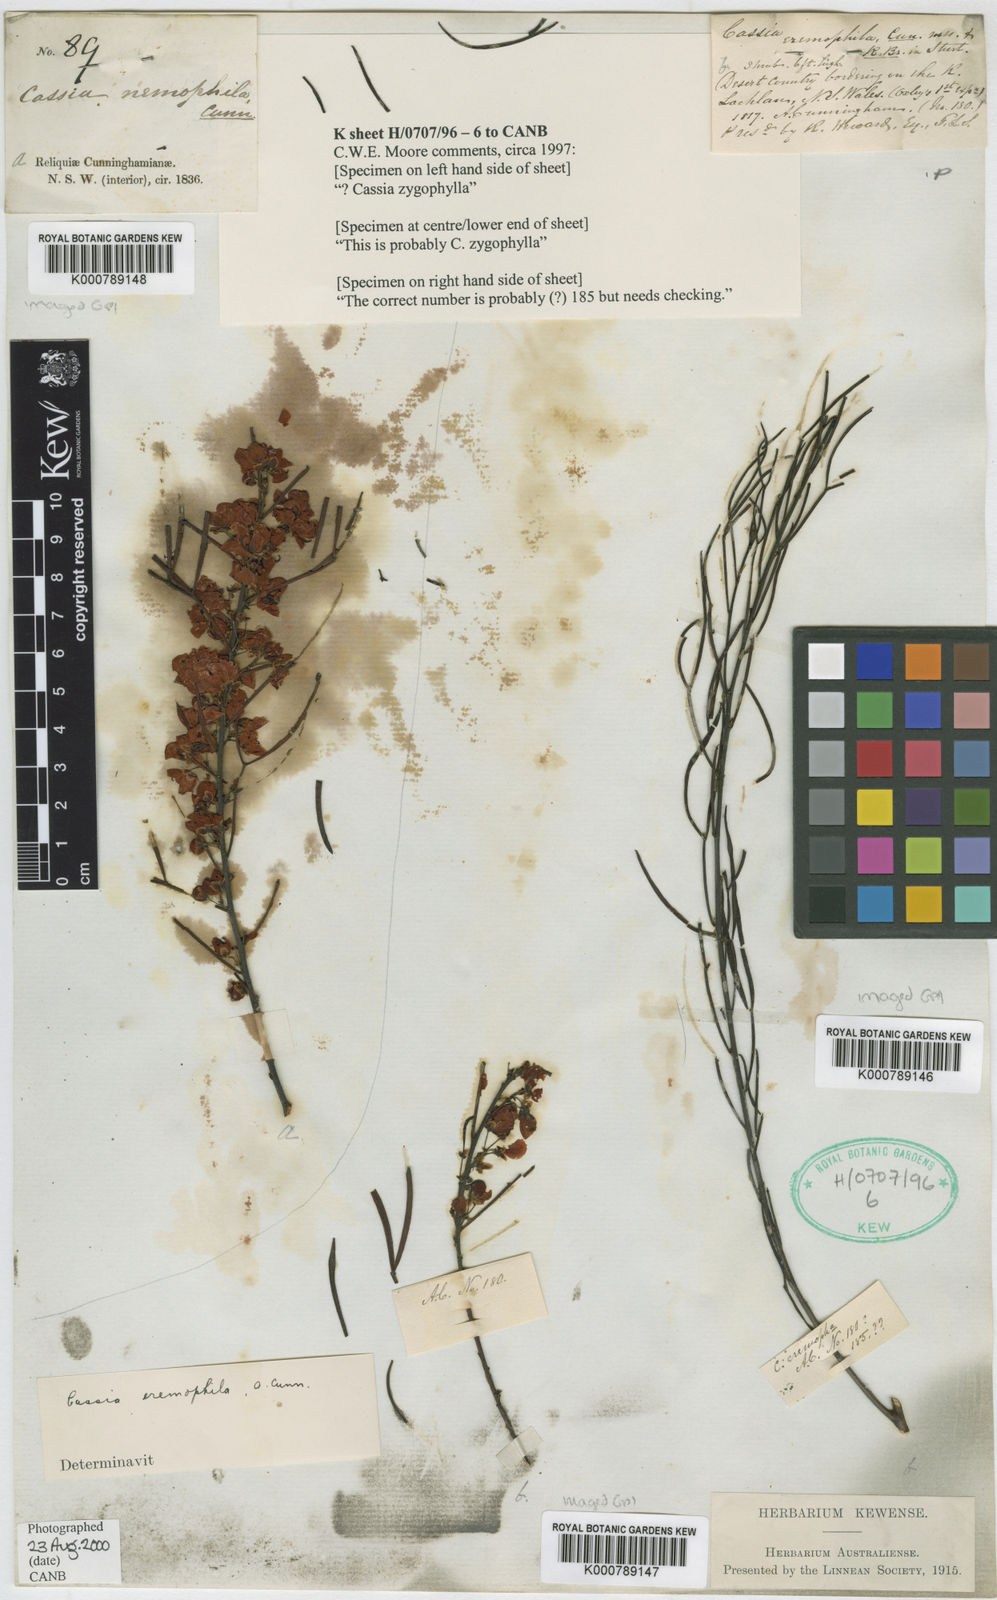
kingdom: Plantae
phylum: Tracheophyta
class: Magnoliopsida
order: Fabales
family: Fabaceae
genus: Senna
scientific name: Senna
